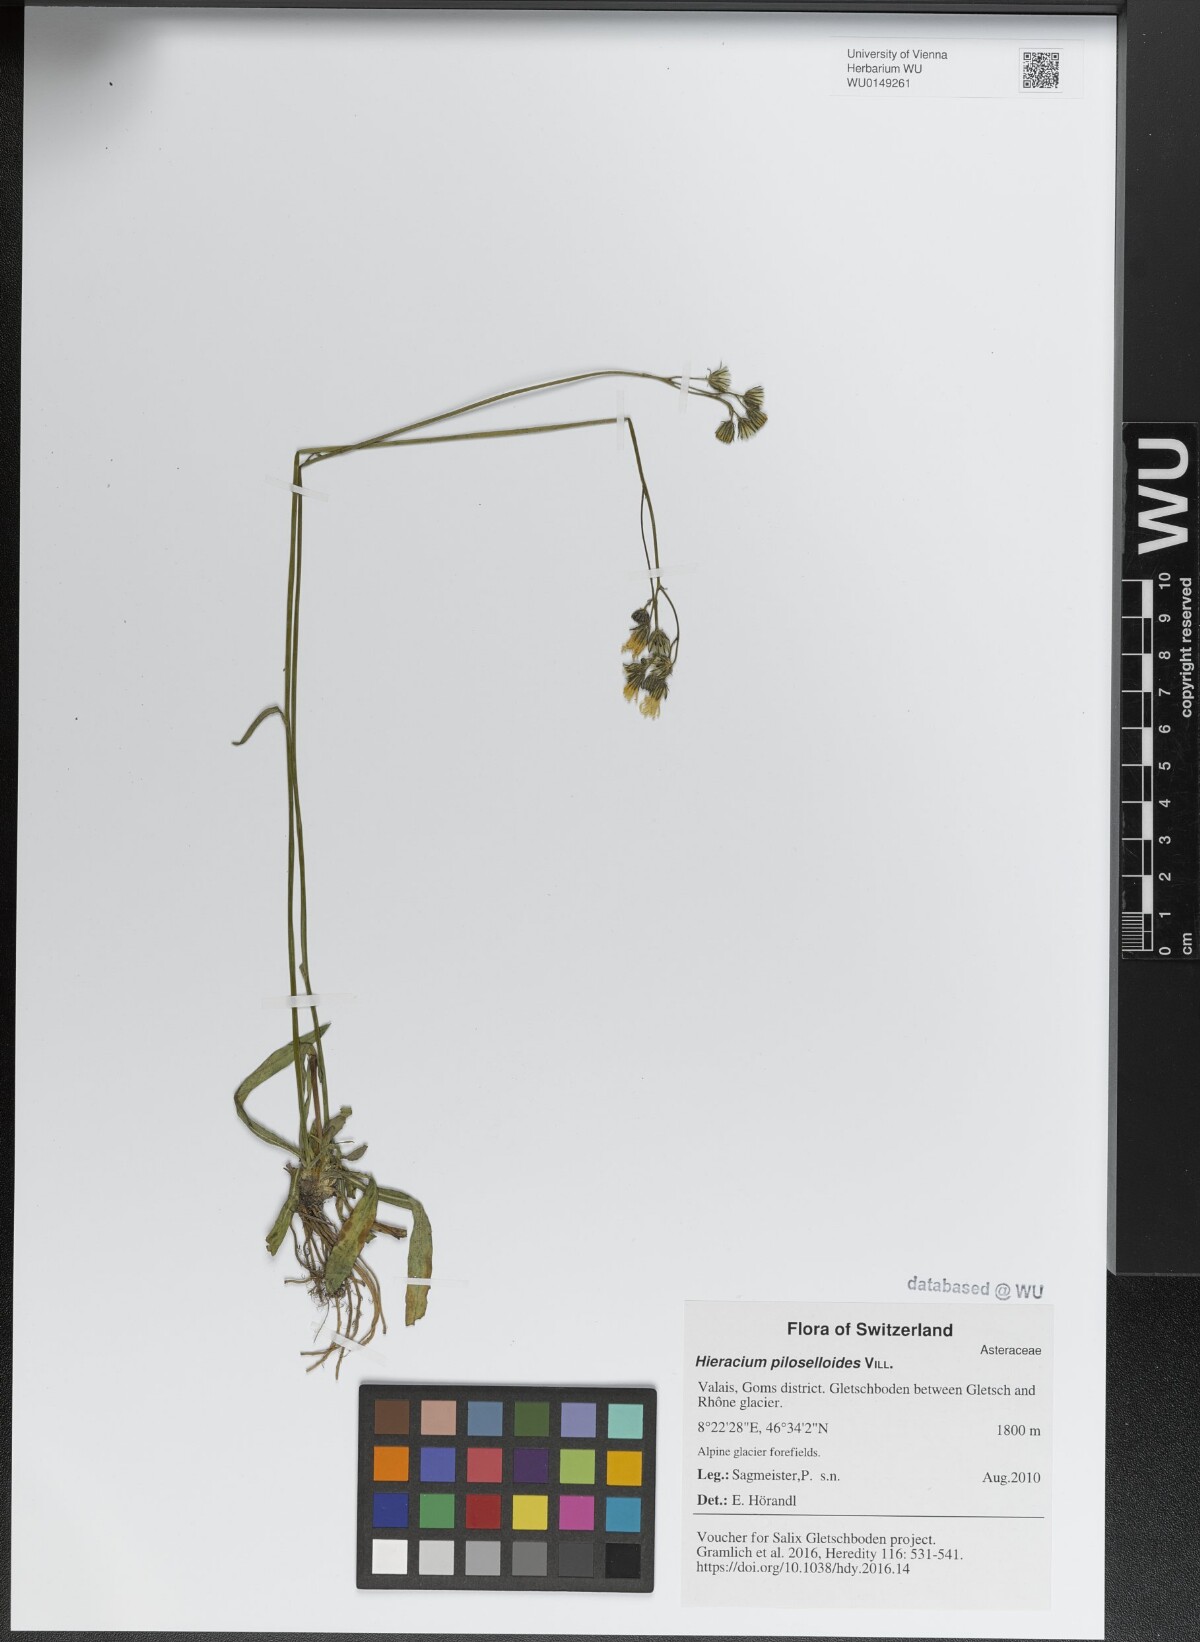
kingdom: Plantae
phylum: Tracheophyta
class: Magnoliopsida
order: Asterales
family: Asteraceae
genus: Pilosella
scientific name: Pilosella piloselloides
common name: Glaucous king-devil
